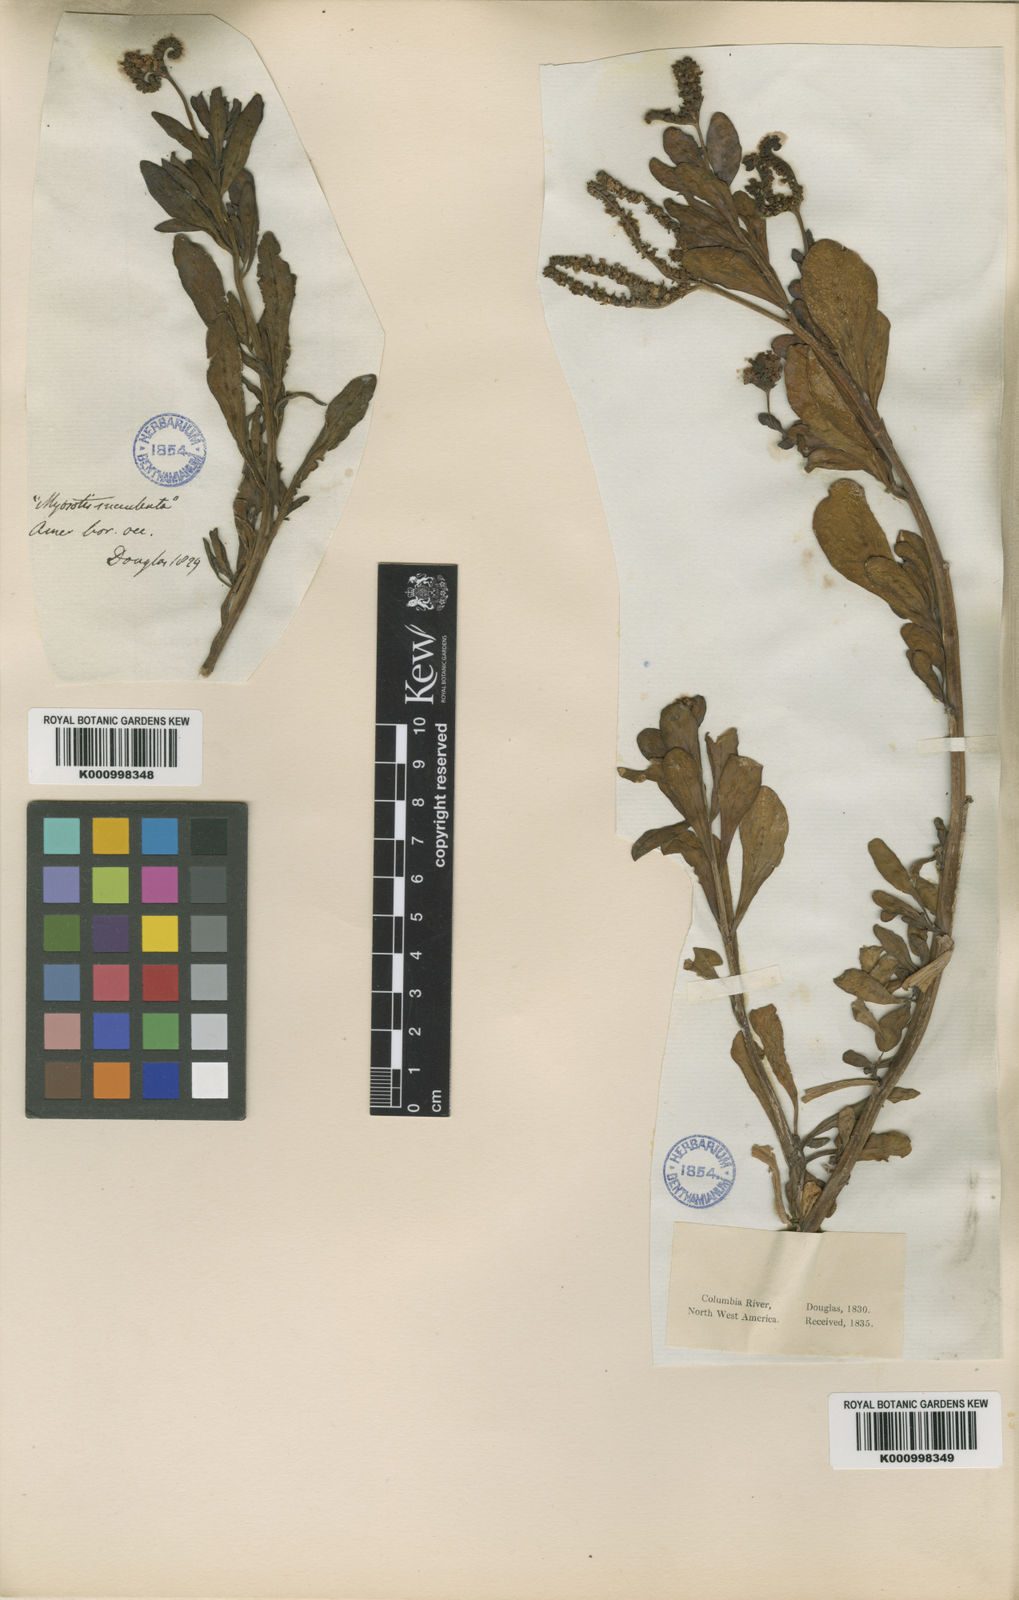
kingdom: Plantae
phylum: Tracheophyta
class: Magnoliopsida
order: Boraginales
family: Heliotropiaceae
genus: Heliotropium
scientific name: Heliotropium
